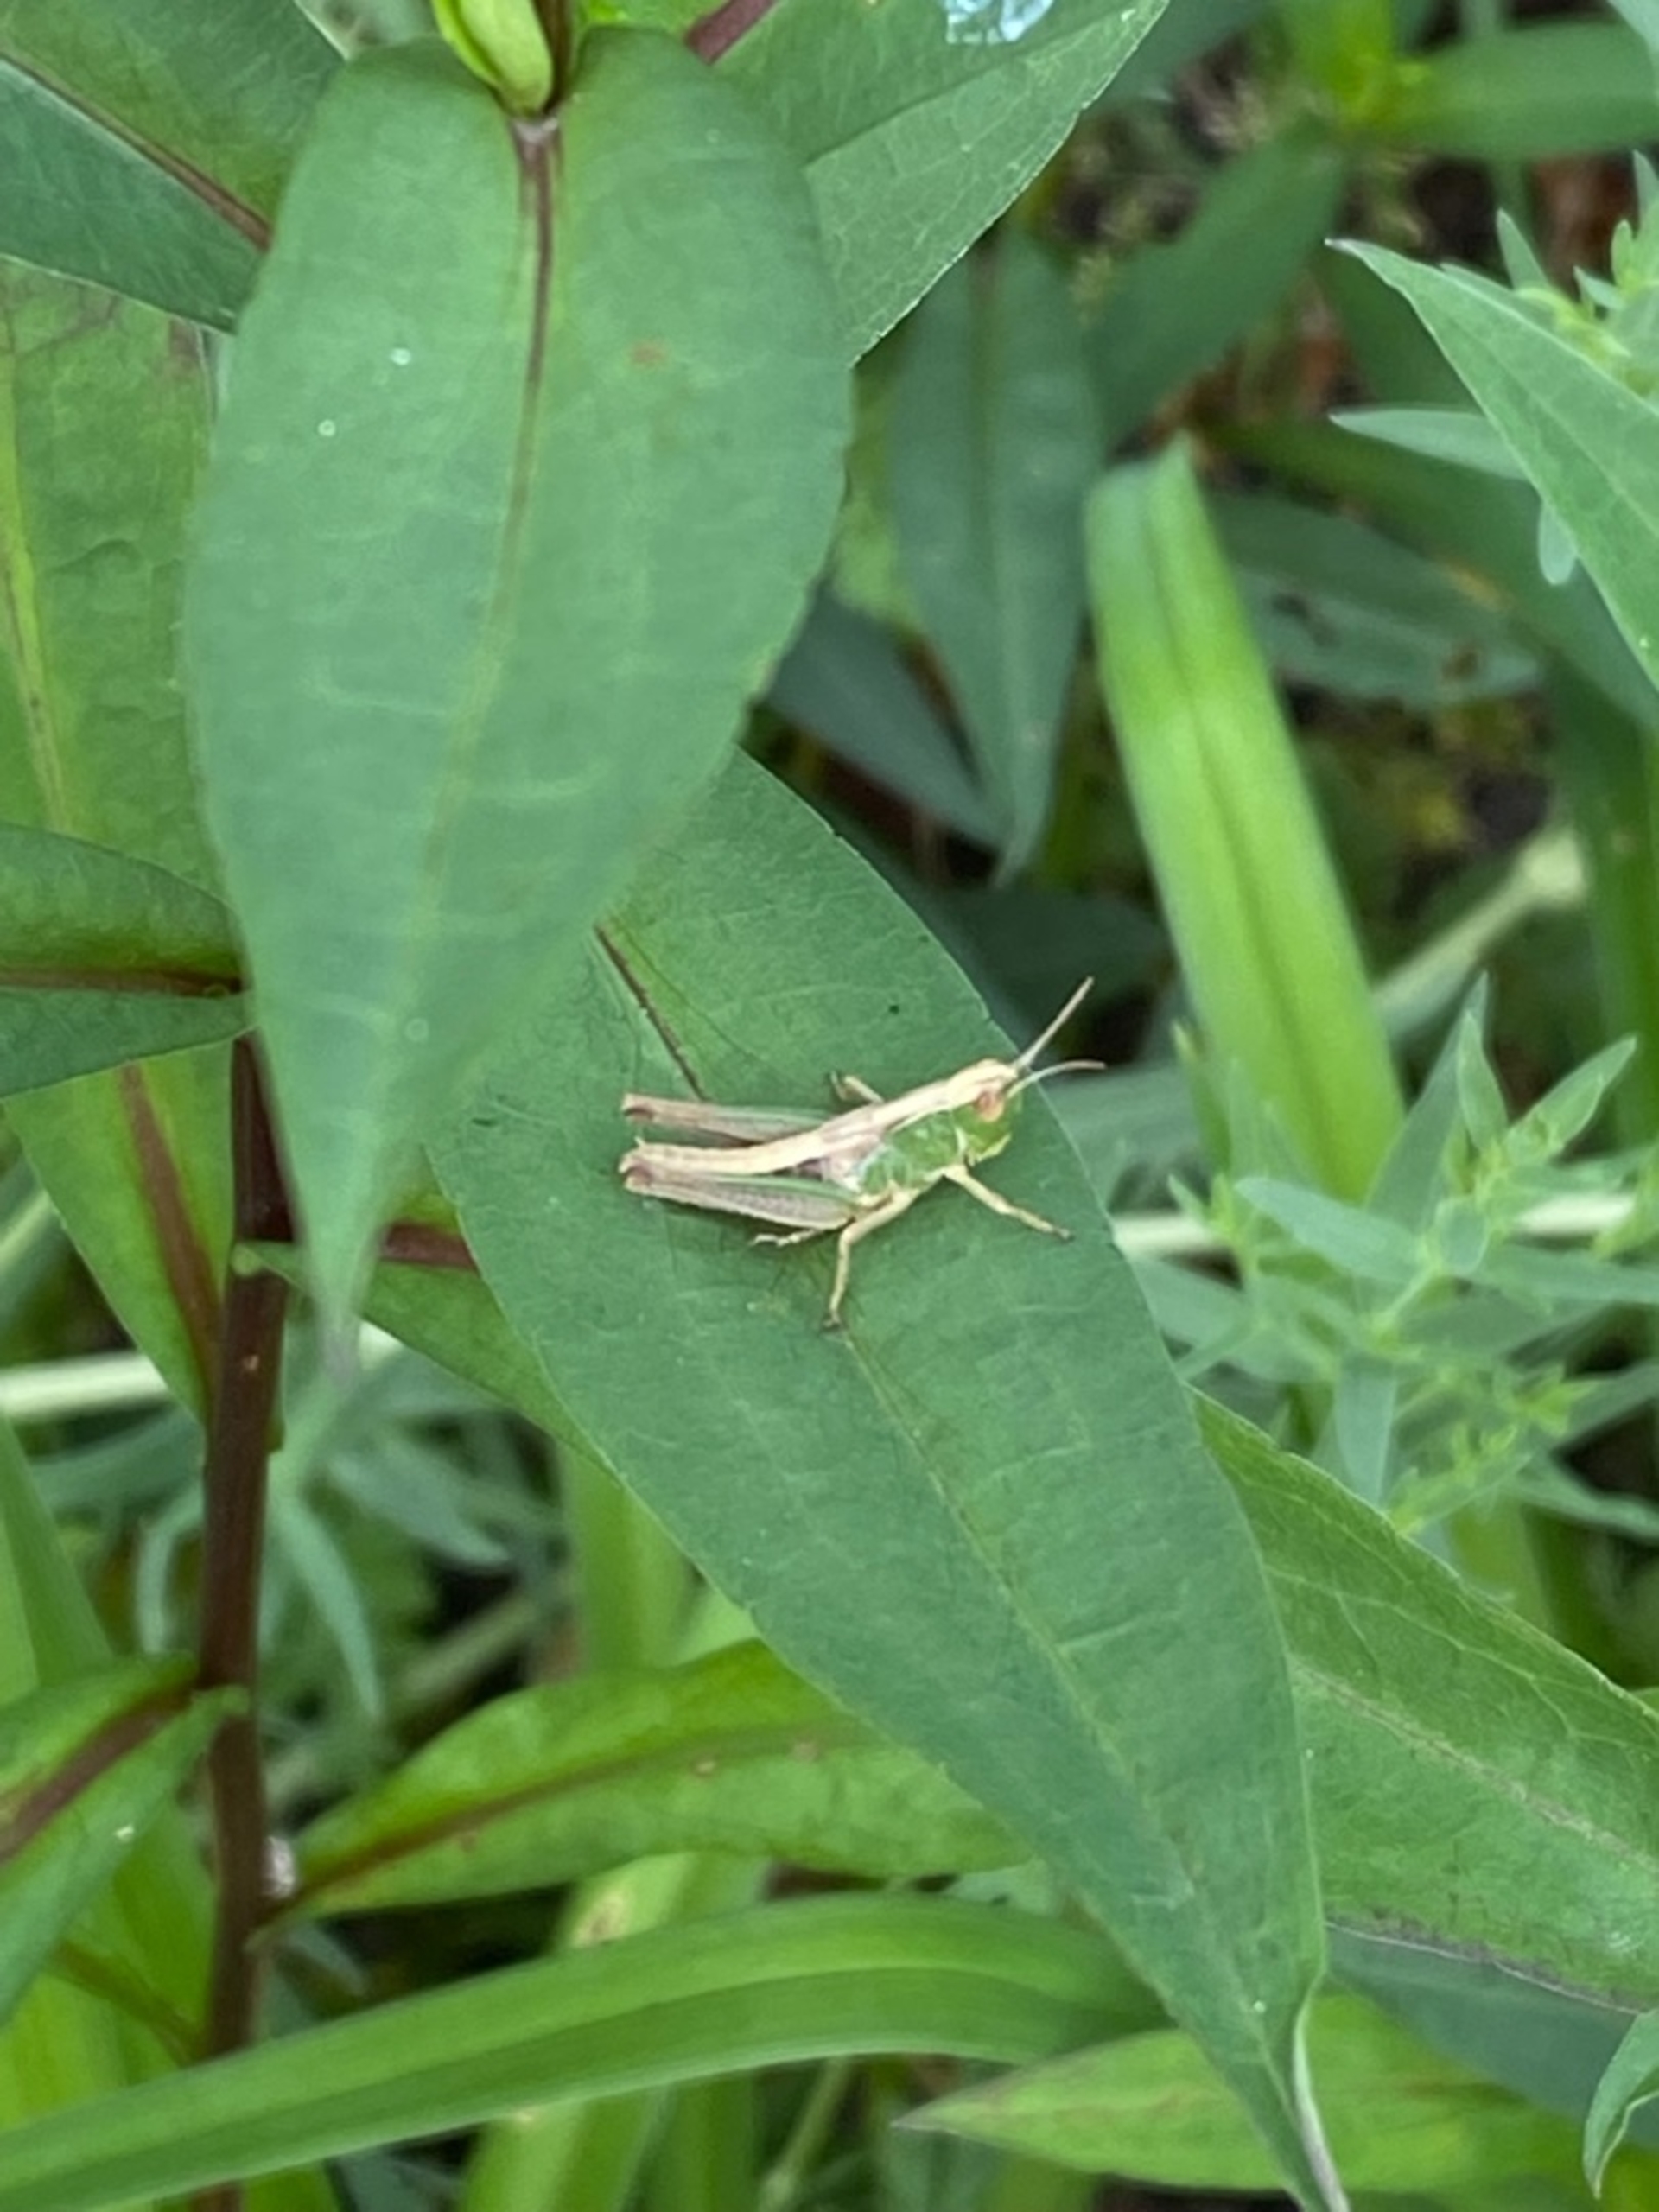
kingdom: Animalia
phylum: Arthropoda
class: Insecta
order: Orthoptera
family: Acrididae
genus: Pseudochorthippus
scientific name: Pseudochorthippus parallelus
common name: Enggræshoppe
